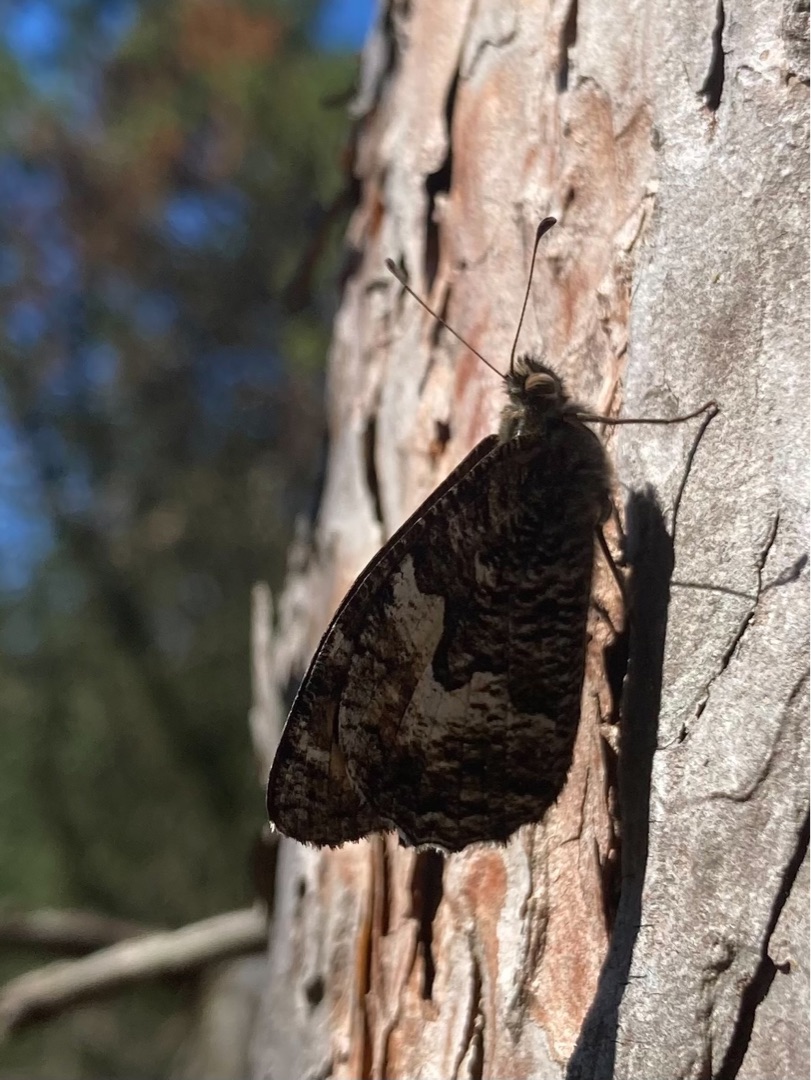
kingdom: Animalia
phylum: Arthropoda
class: Insecta
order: Lepidoptera
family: Nymphalidae
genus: Hipparchia
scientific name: Hipparchia semele
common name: Sandrandøje
